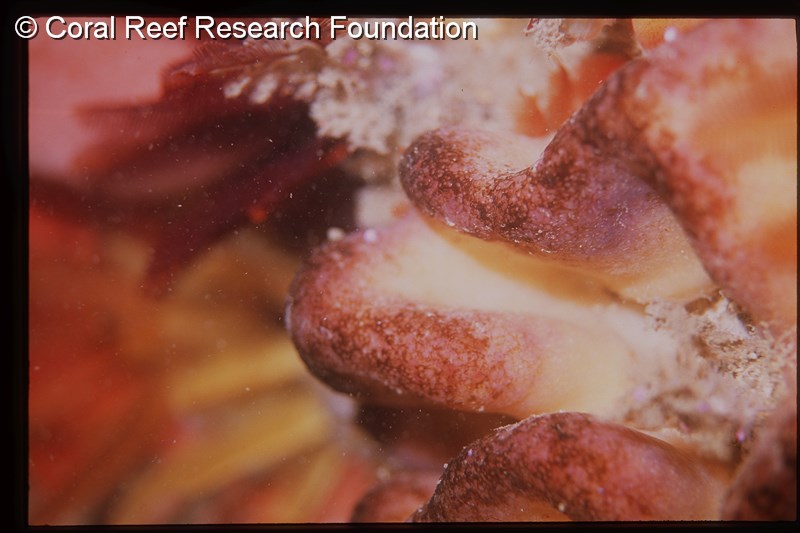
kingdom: Animalia
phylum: Chordata
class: Ascidiacea
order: Aplousobranchia
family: Polycitoridae
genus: Cystodytes
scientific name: Cystodytes dellechiajei
